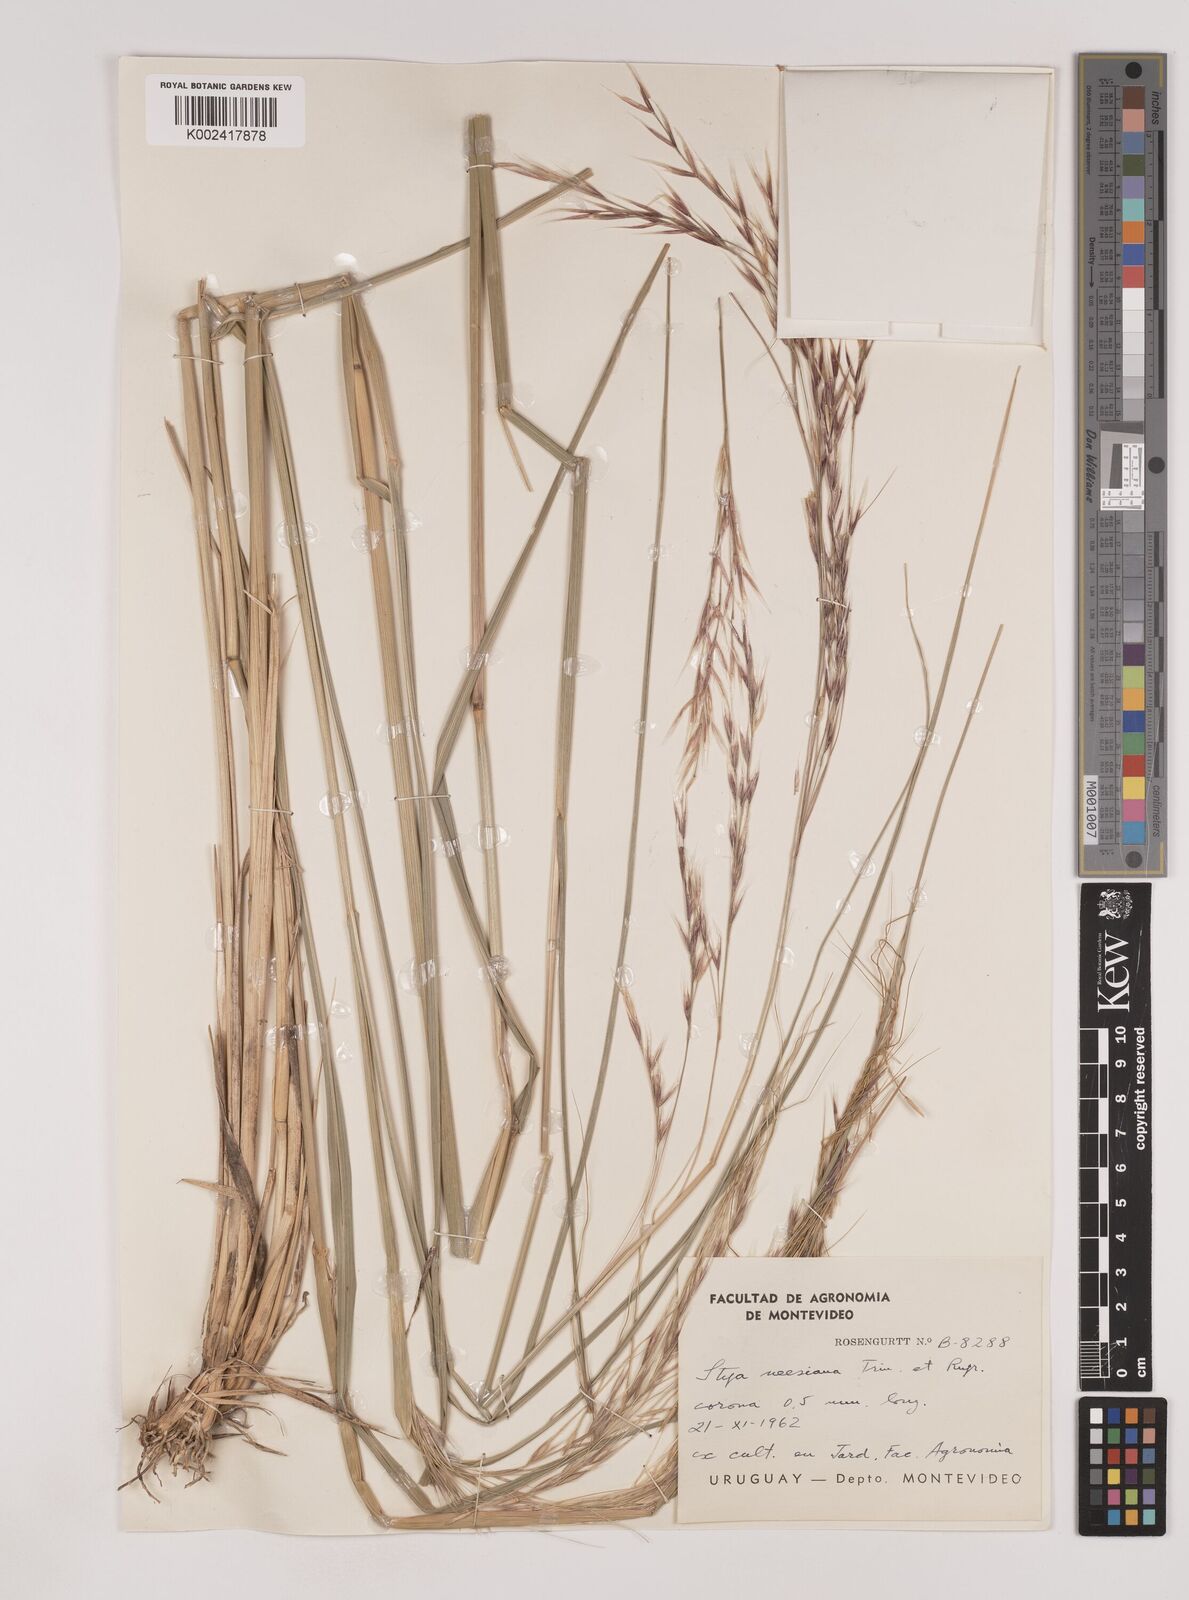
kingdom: Plantae
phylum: Tracheophyta
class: Liliopsida
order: Poales
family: Poaceae
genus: Nassella
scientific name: Nassella neesiana
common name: American needle-grass
